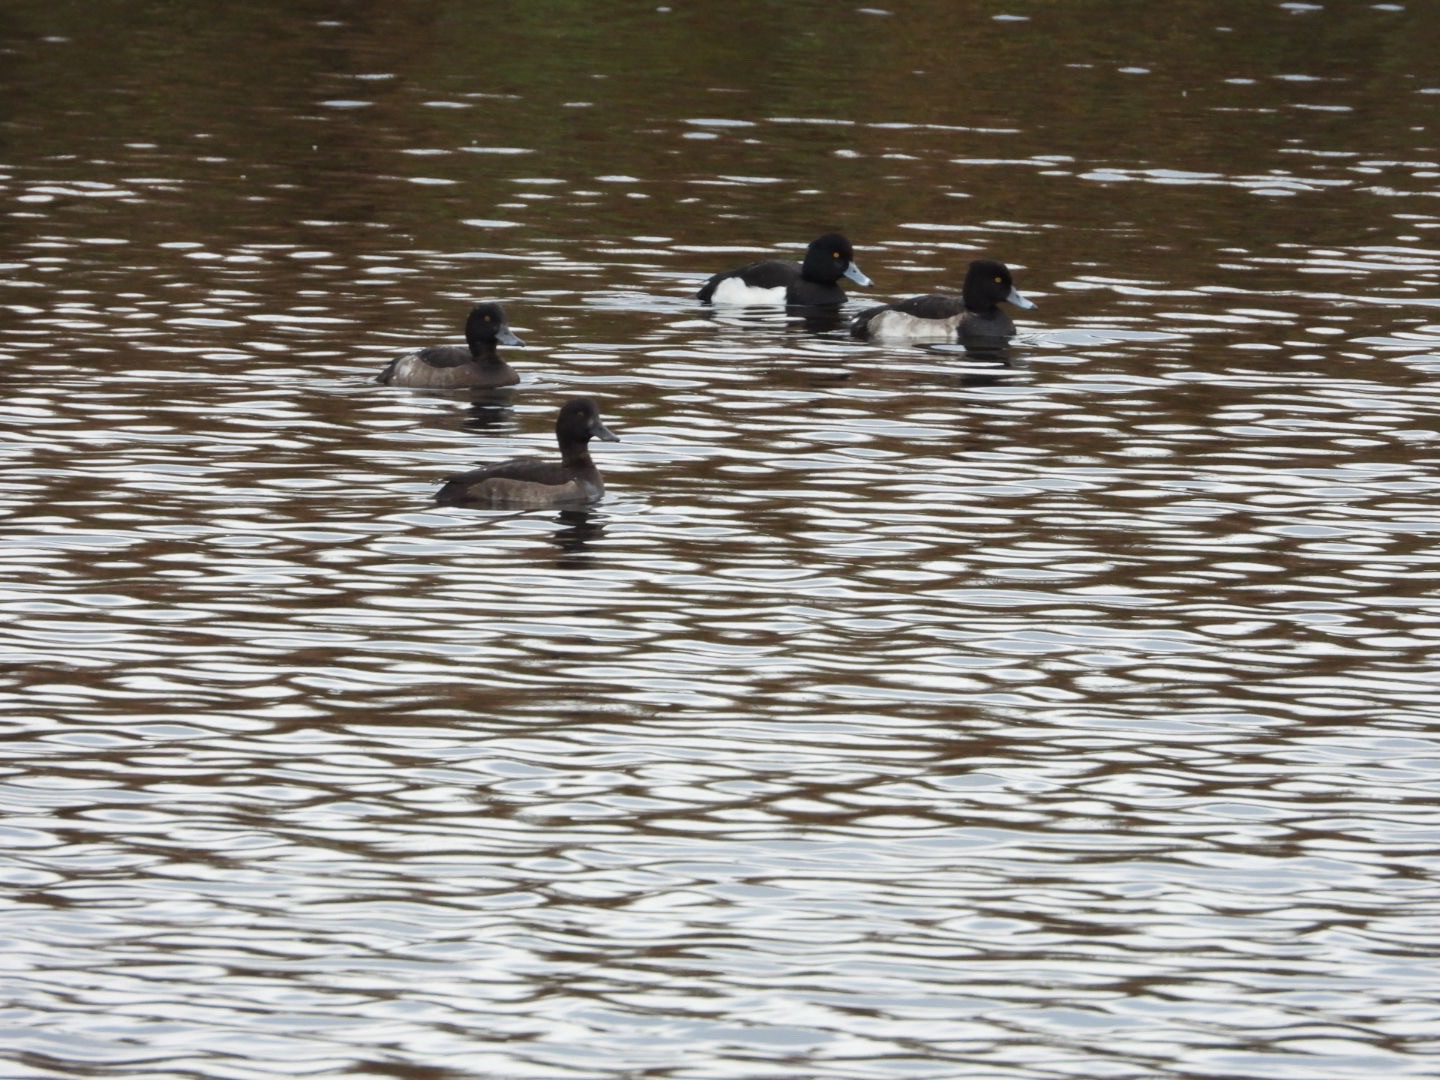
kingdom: Animalia
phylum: Chordata
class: Aves
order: Anseriformes
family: Anatidae
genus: Aythya
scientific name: Aythya fuligula
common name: Troldand
